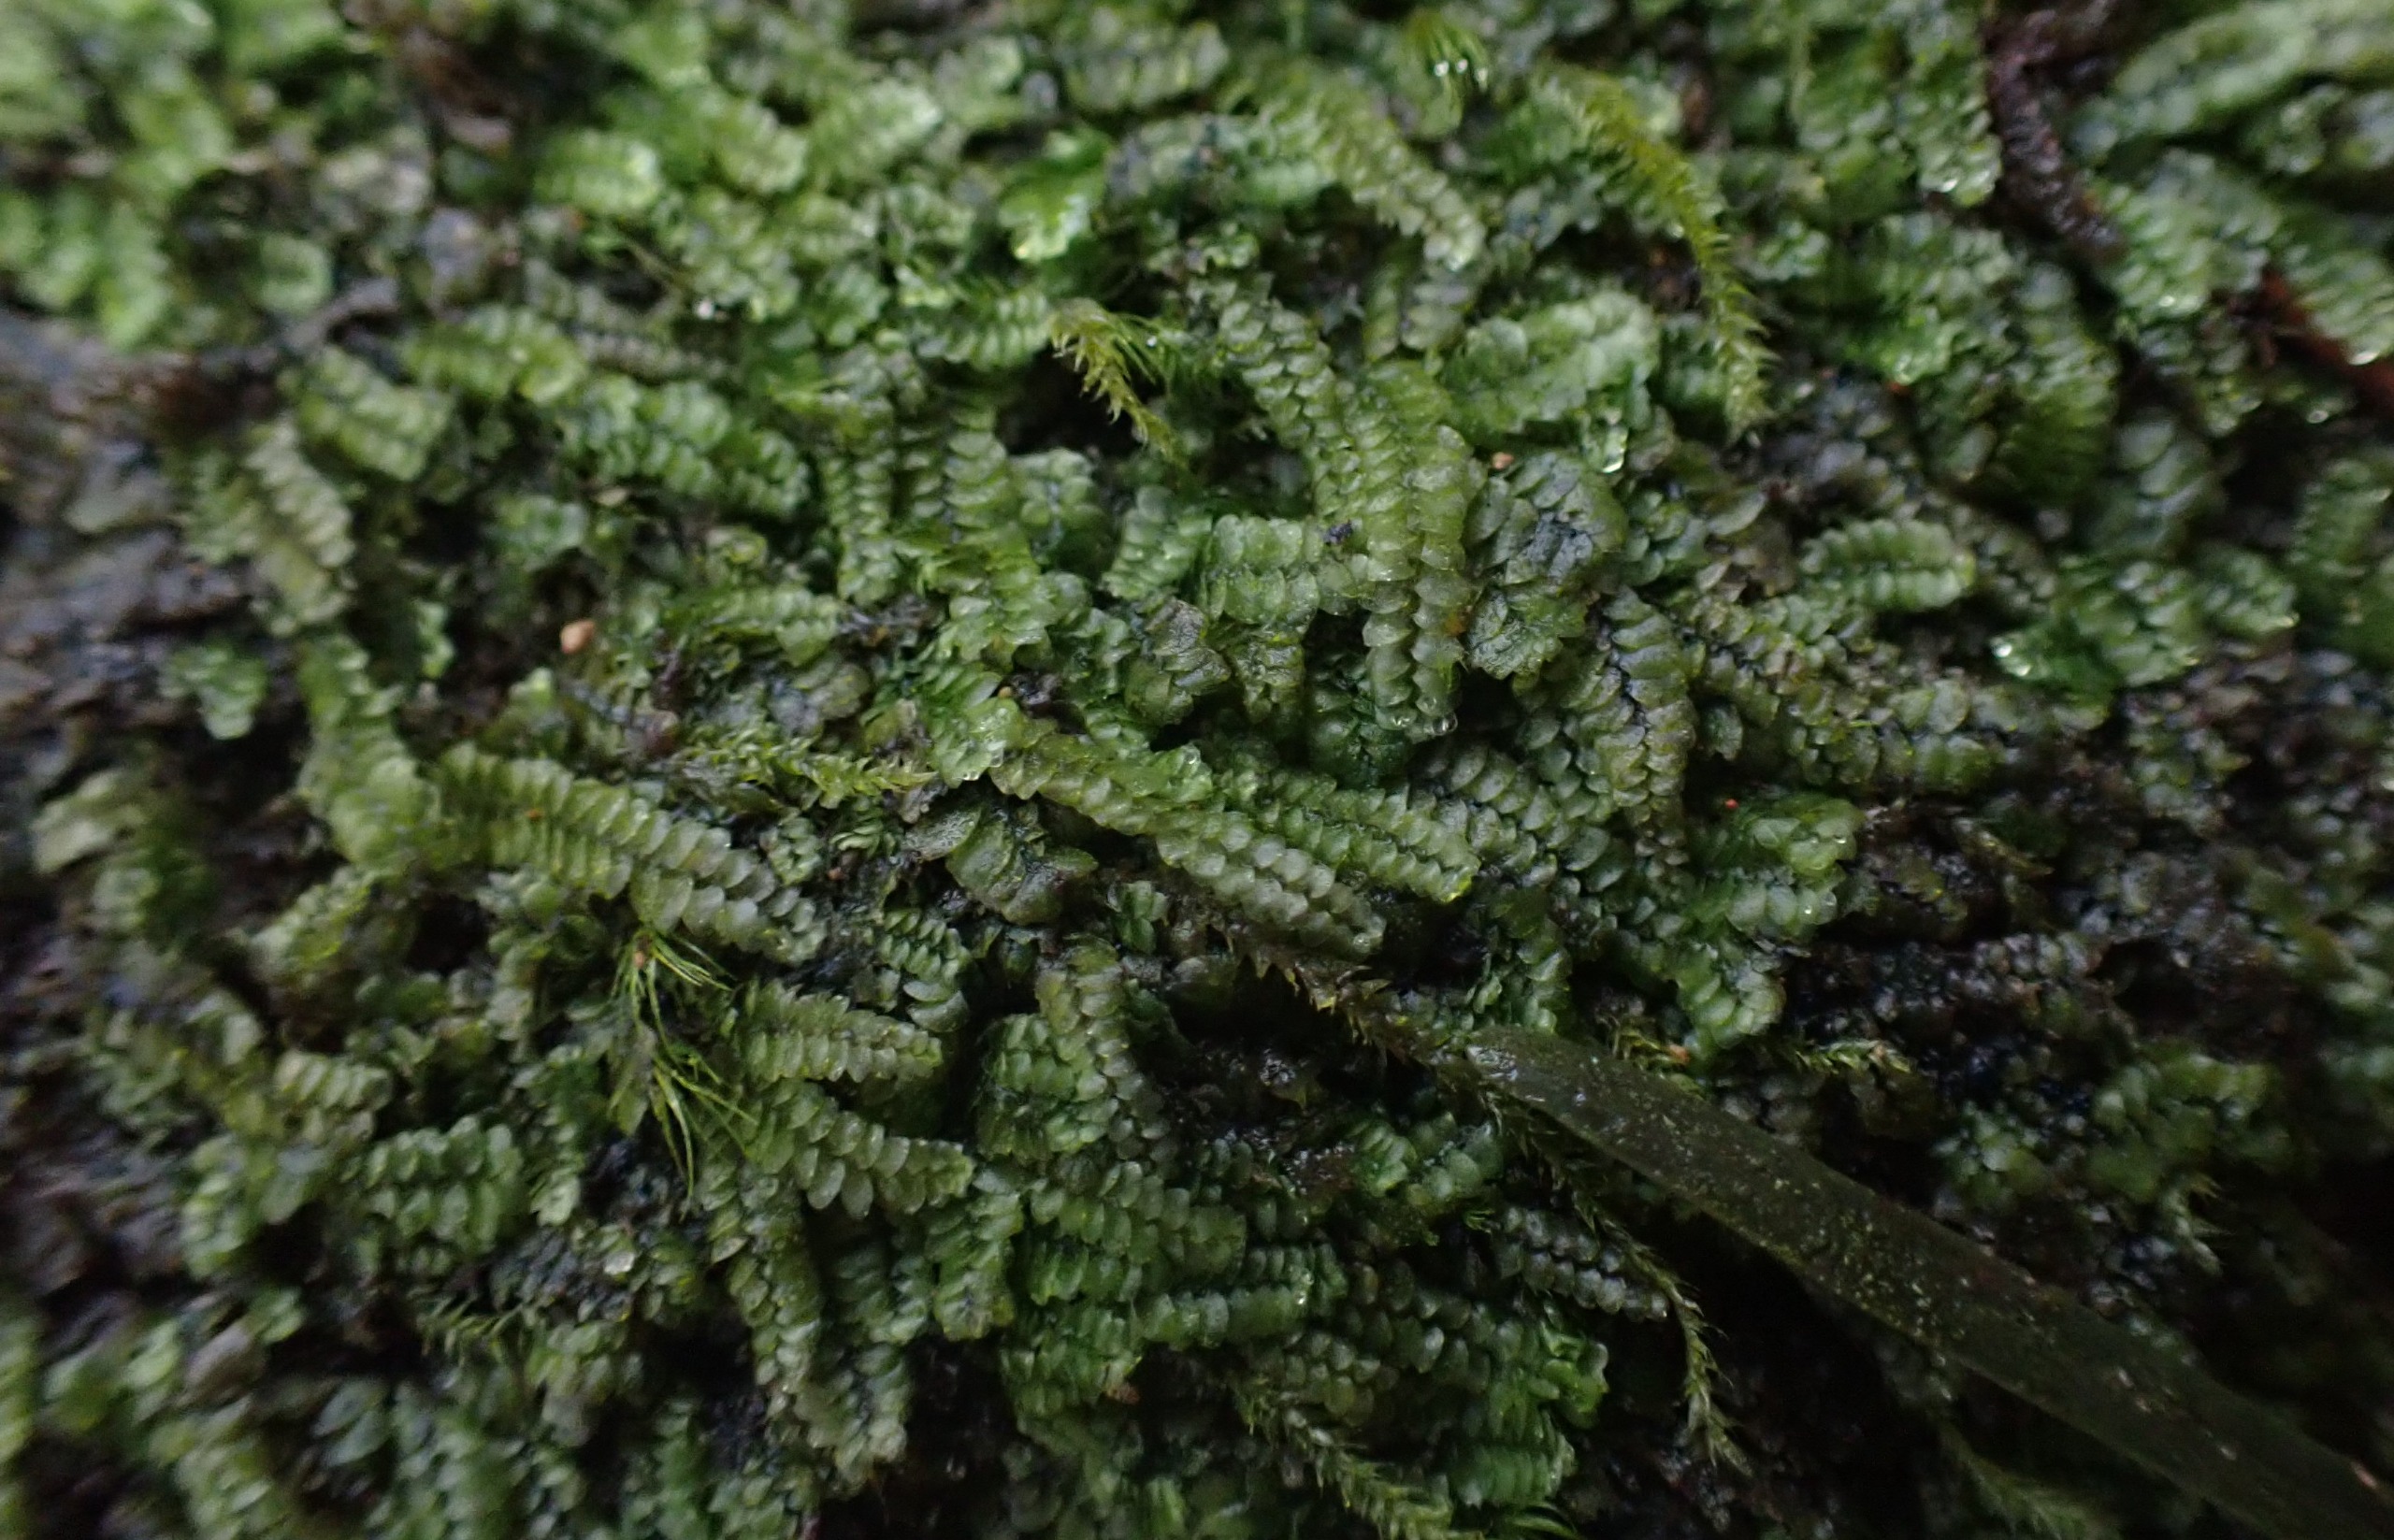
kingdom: Plantae
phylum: Marchantiophyta
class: Jungermanniopsida
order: Jungermanniales
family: Calypogeiaceae
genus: Calypogeia
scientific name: Calypogeia muelleriana
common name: Almindelig sækmos
